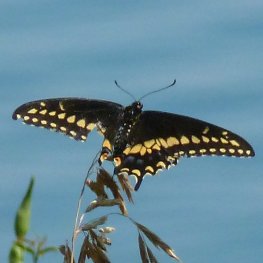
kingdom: Animalia
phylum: Arthropoda
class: Insecta
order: Lepidoptera
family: Papilionidae
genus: Papilio
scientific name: Papilio polyxenes
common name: Black Swallowtail
